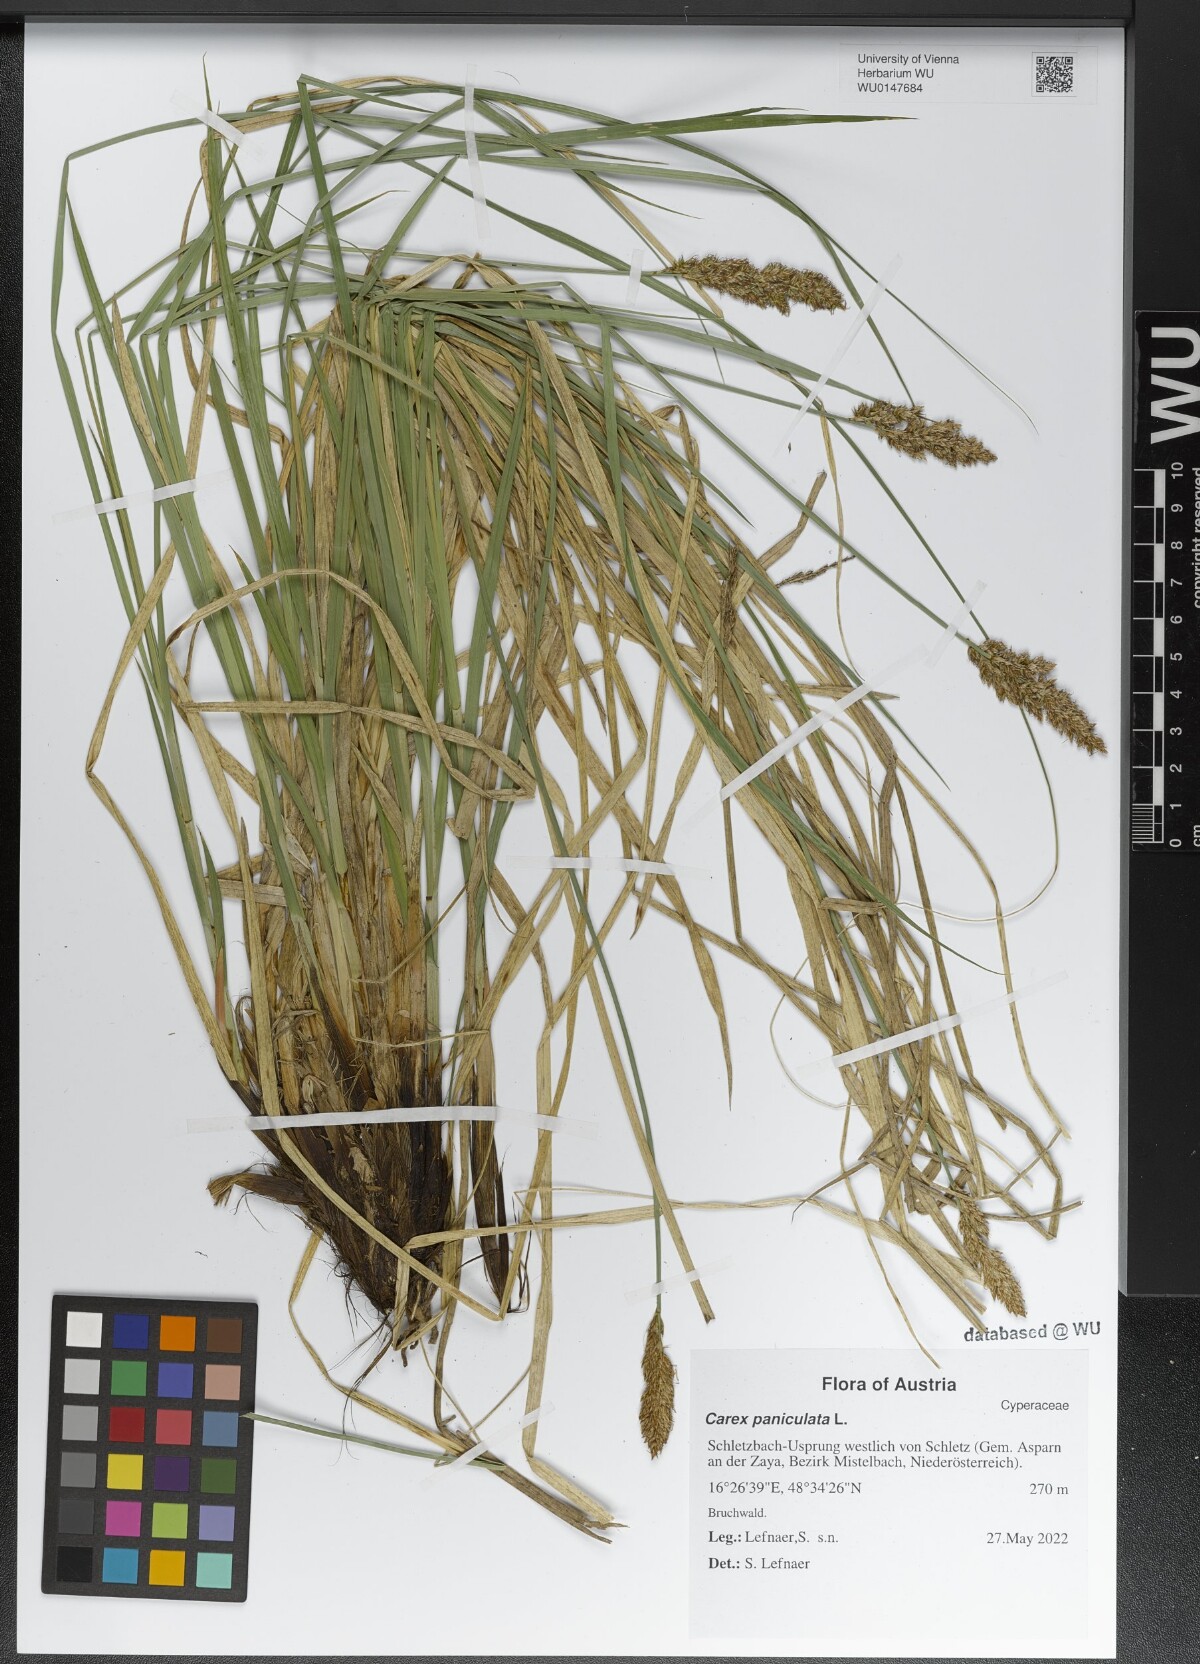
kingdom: Plantae
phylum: Tracheophyta
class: Liliopsida
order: Poales
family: Cyperaceae
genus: Carex
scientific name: Carex paniculata
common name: Greater tussock-sedge
